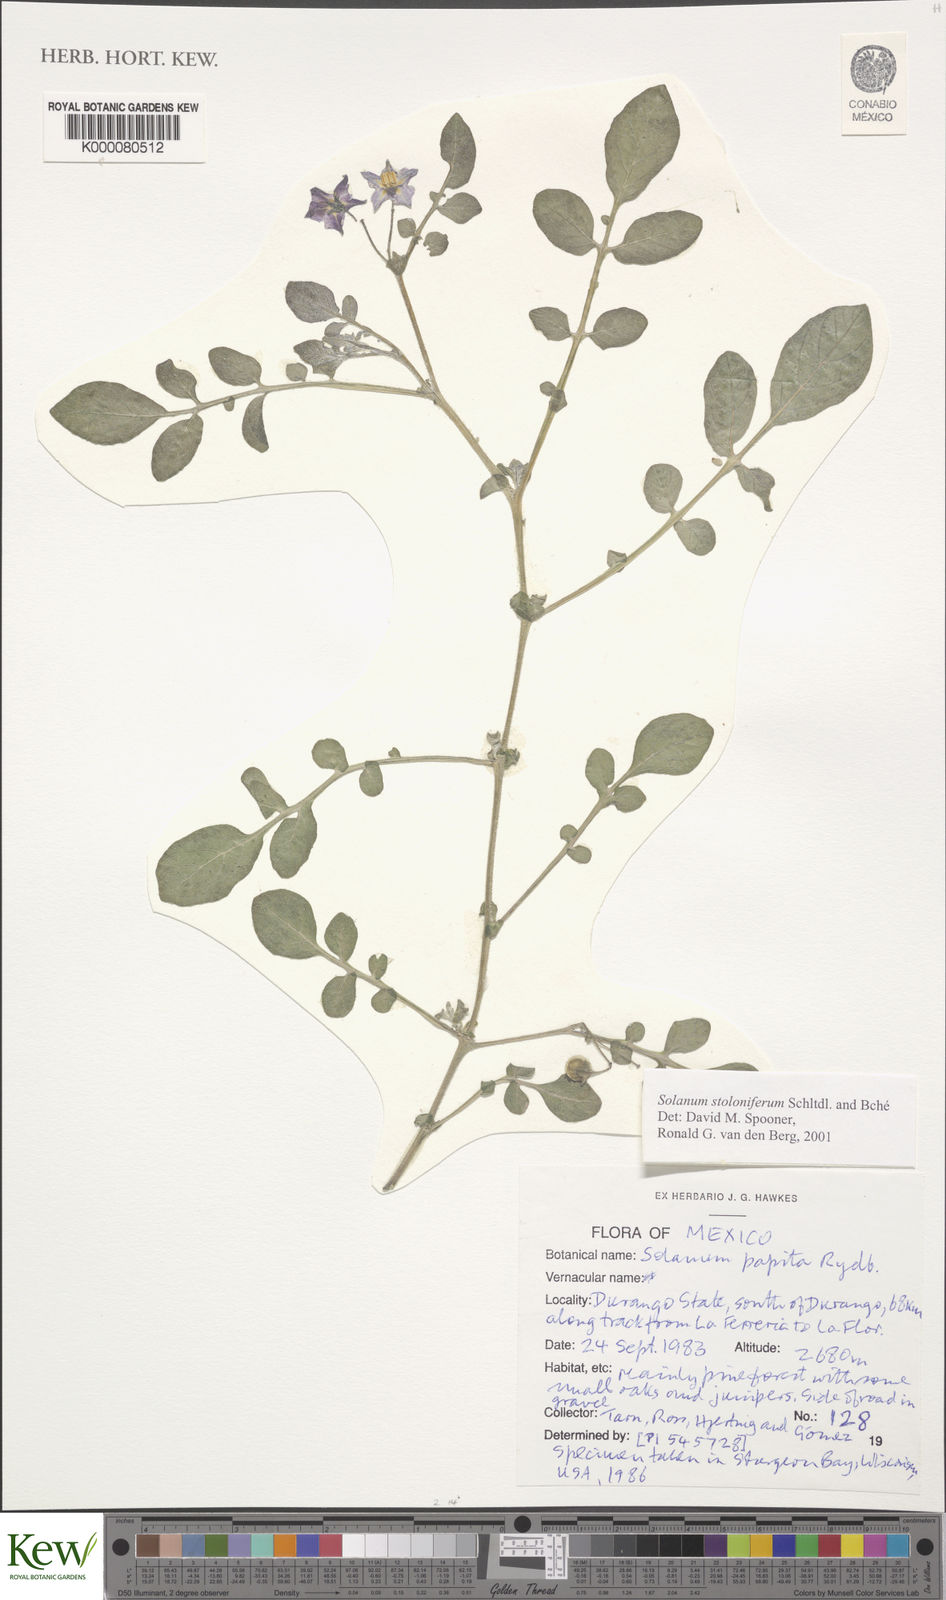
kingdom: Plantae
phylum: Tracheophyta
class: Magnoliopsida
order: Solanales
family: Solanaceae
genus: Solanum
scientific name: Solanum stoloniferum
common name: Fendler's nighshade
